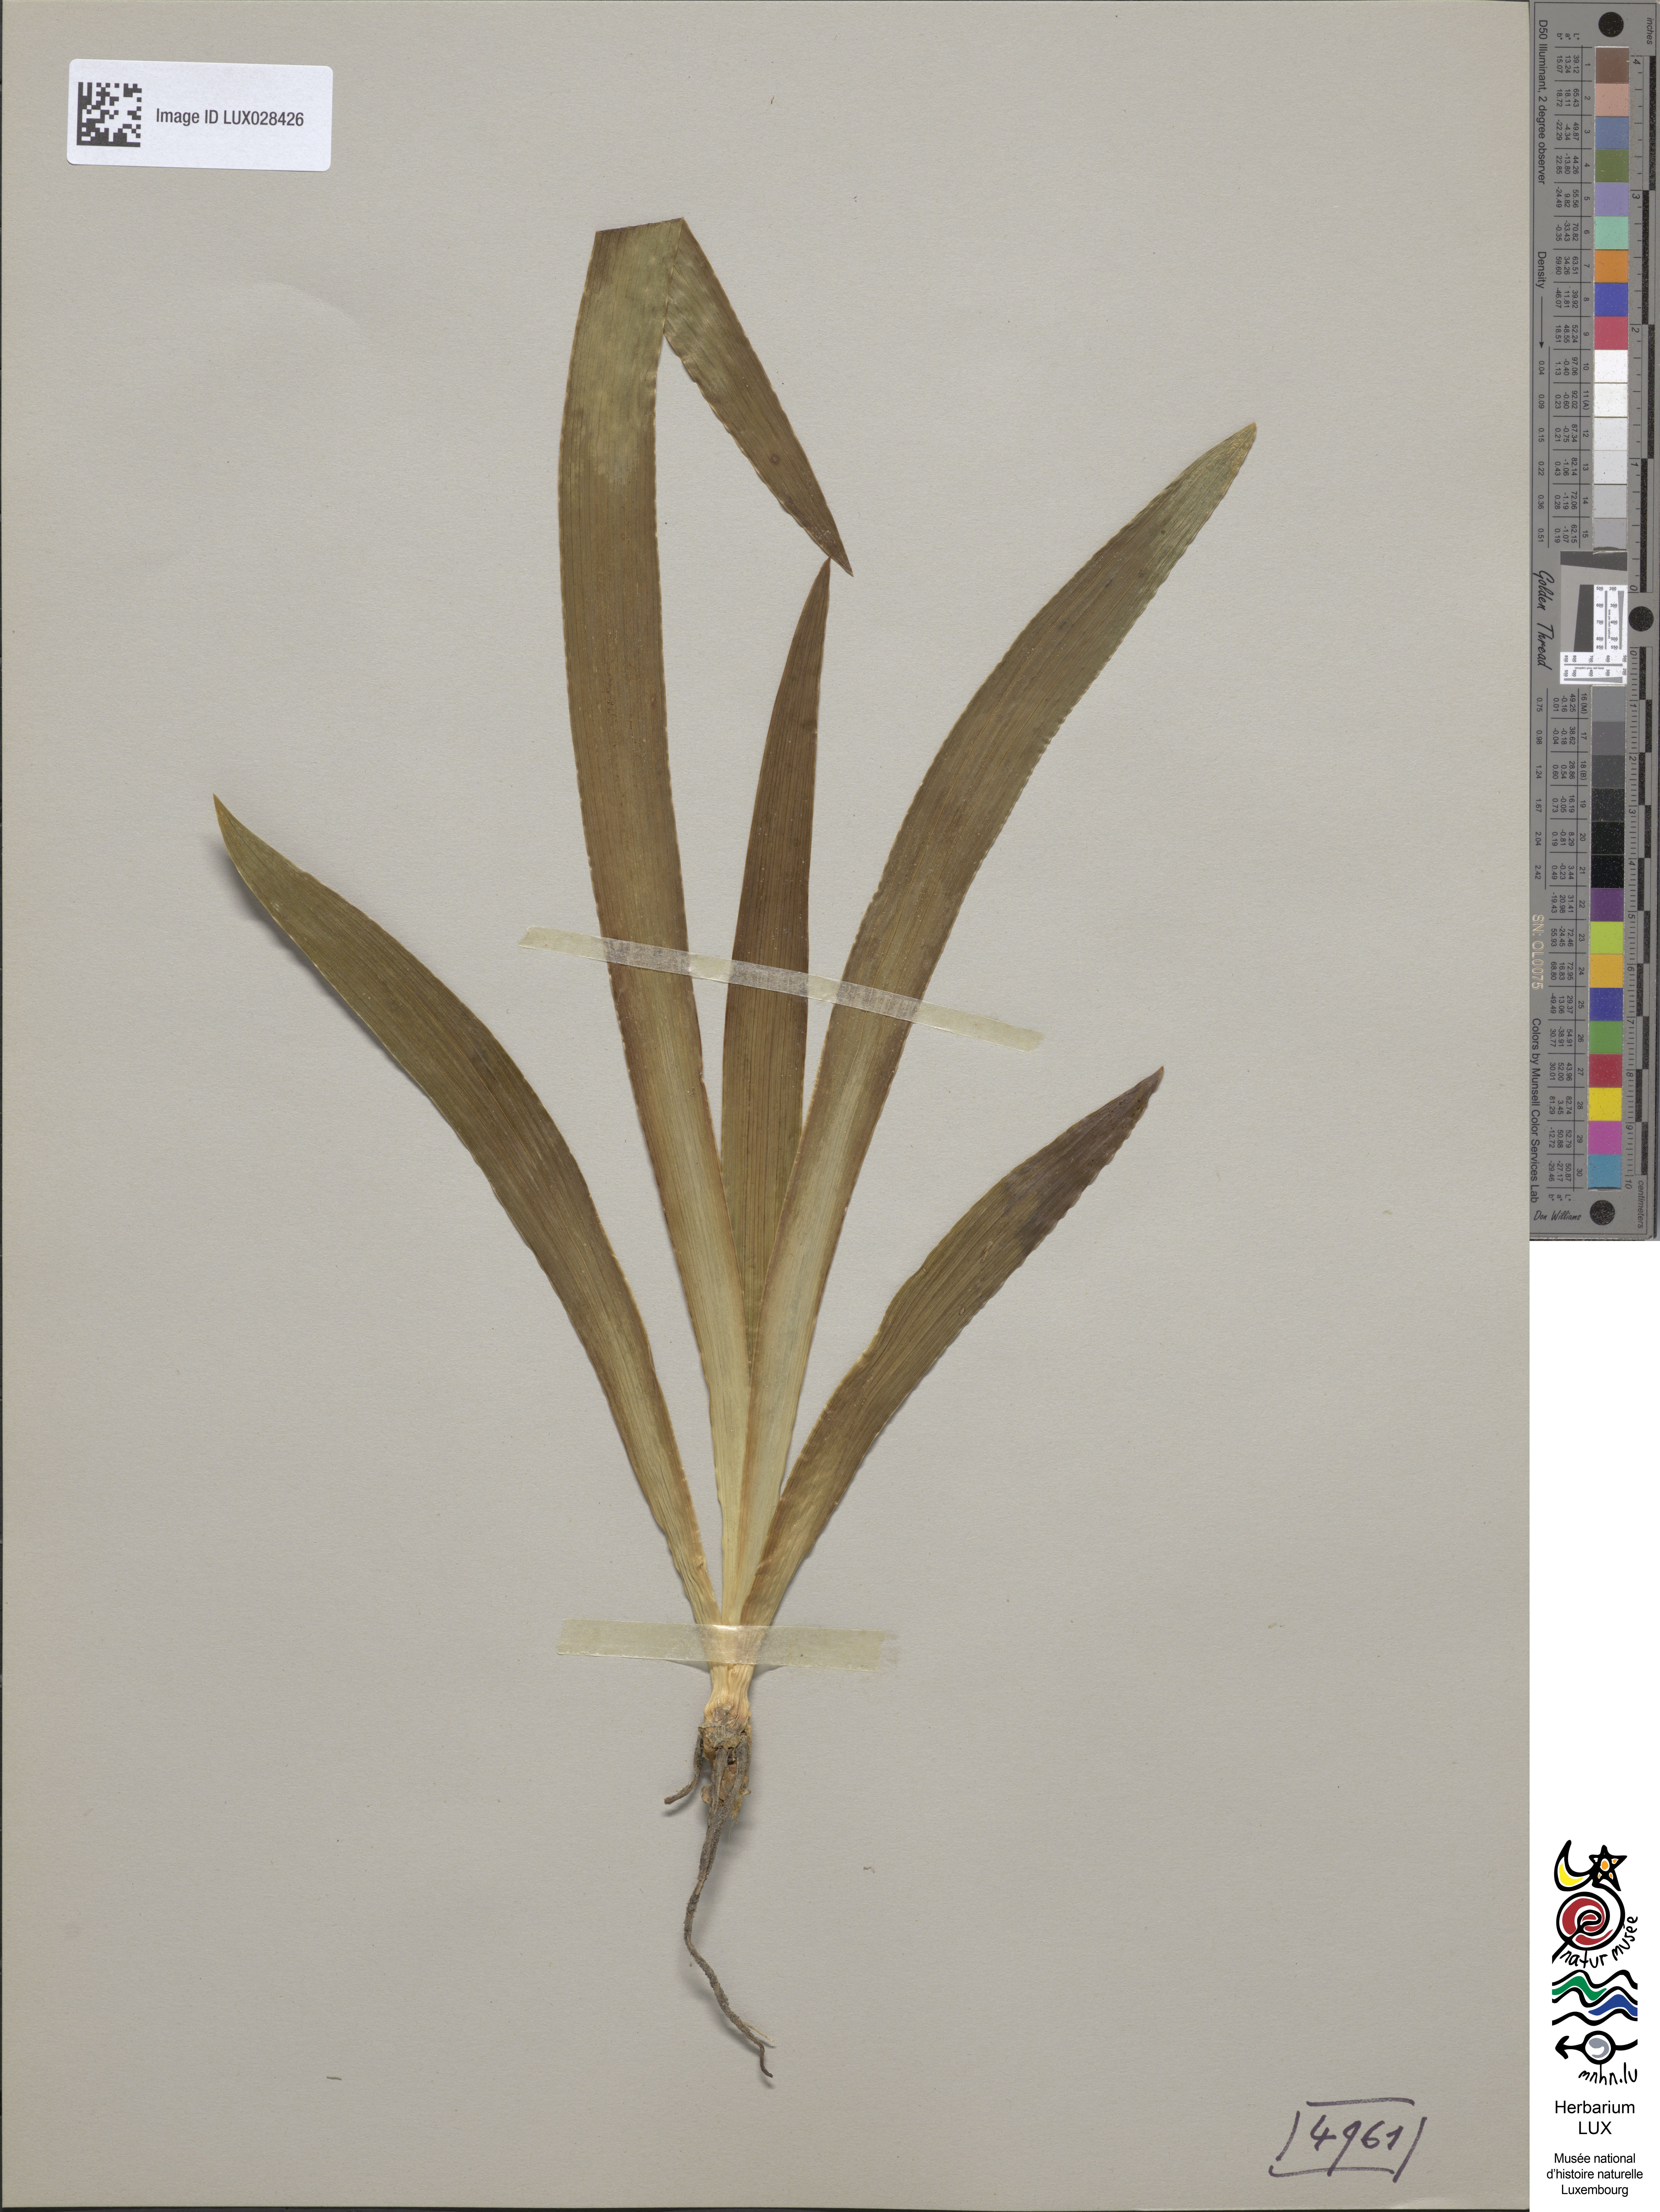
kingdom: Plantae
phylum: Tracheophyta
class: Liliopsida
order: Asparagales
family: Iridaceae
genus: Iris
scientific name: Iris variegata
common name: Hungarian iris
